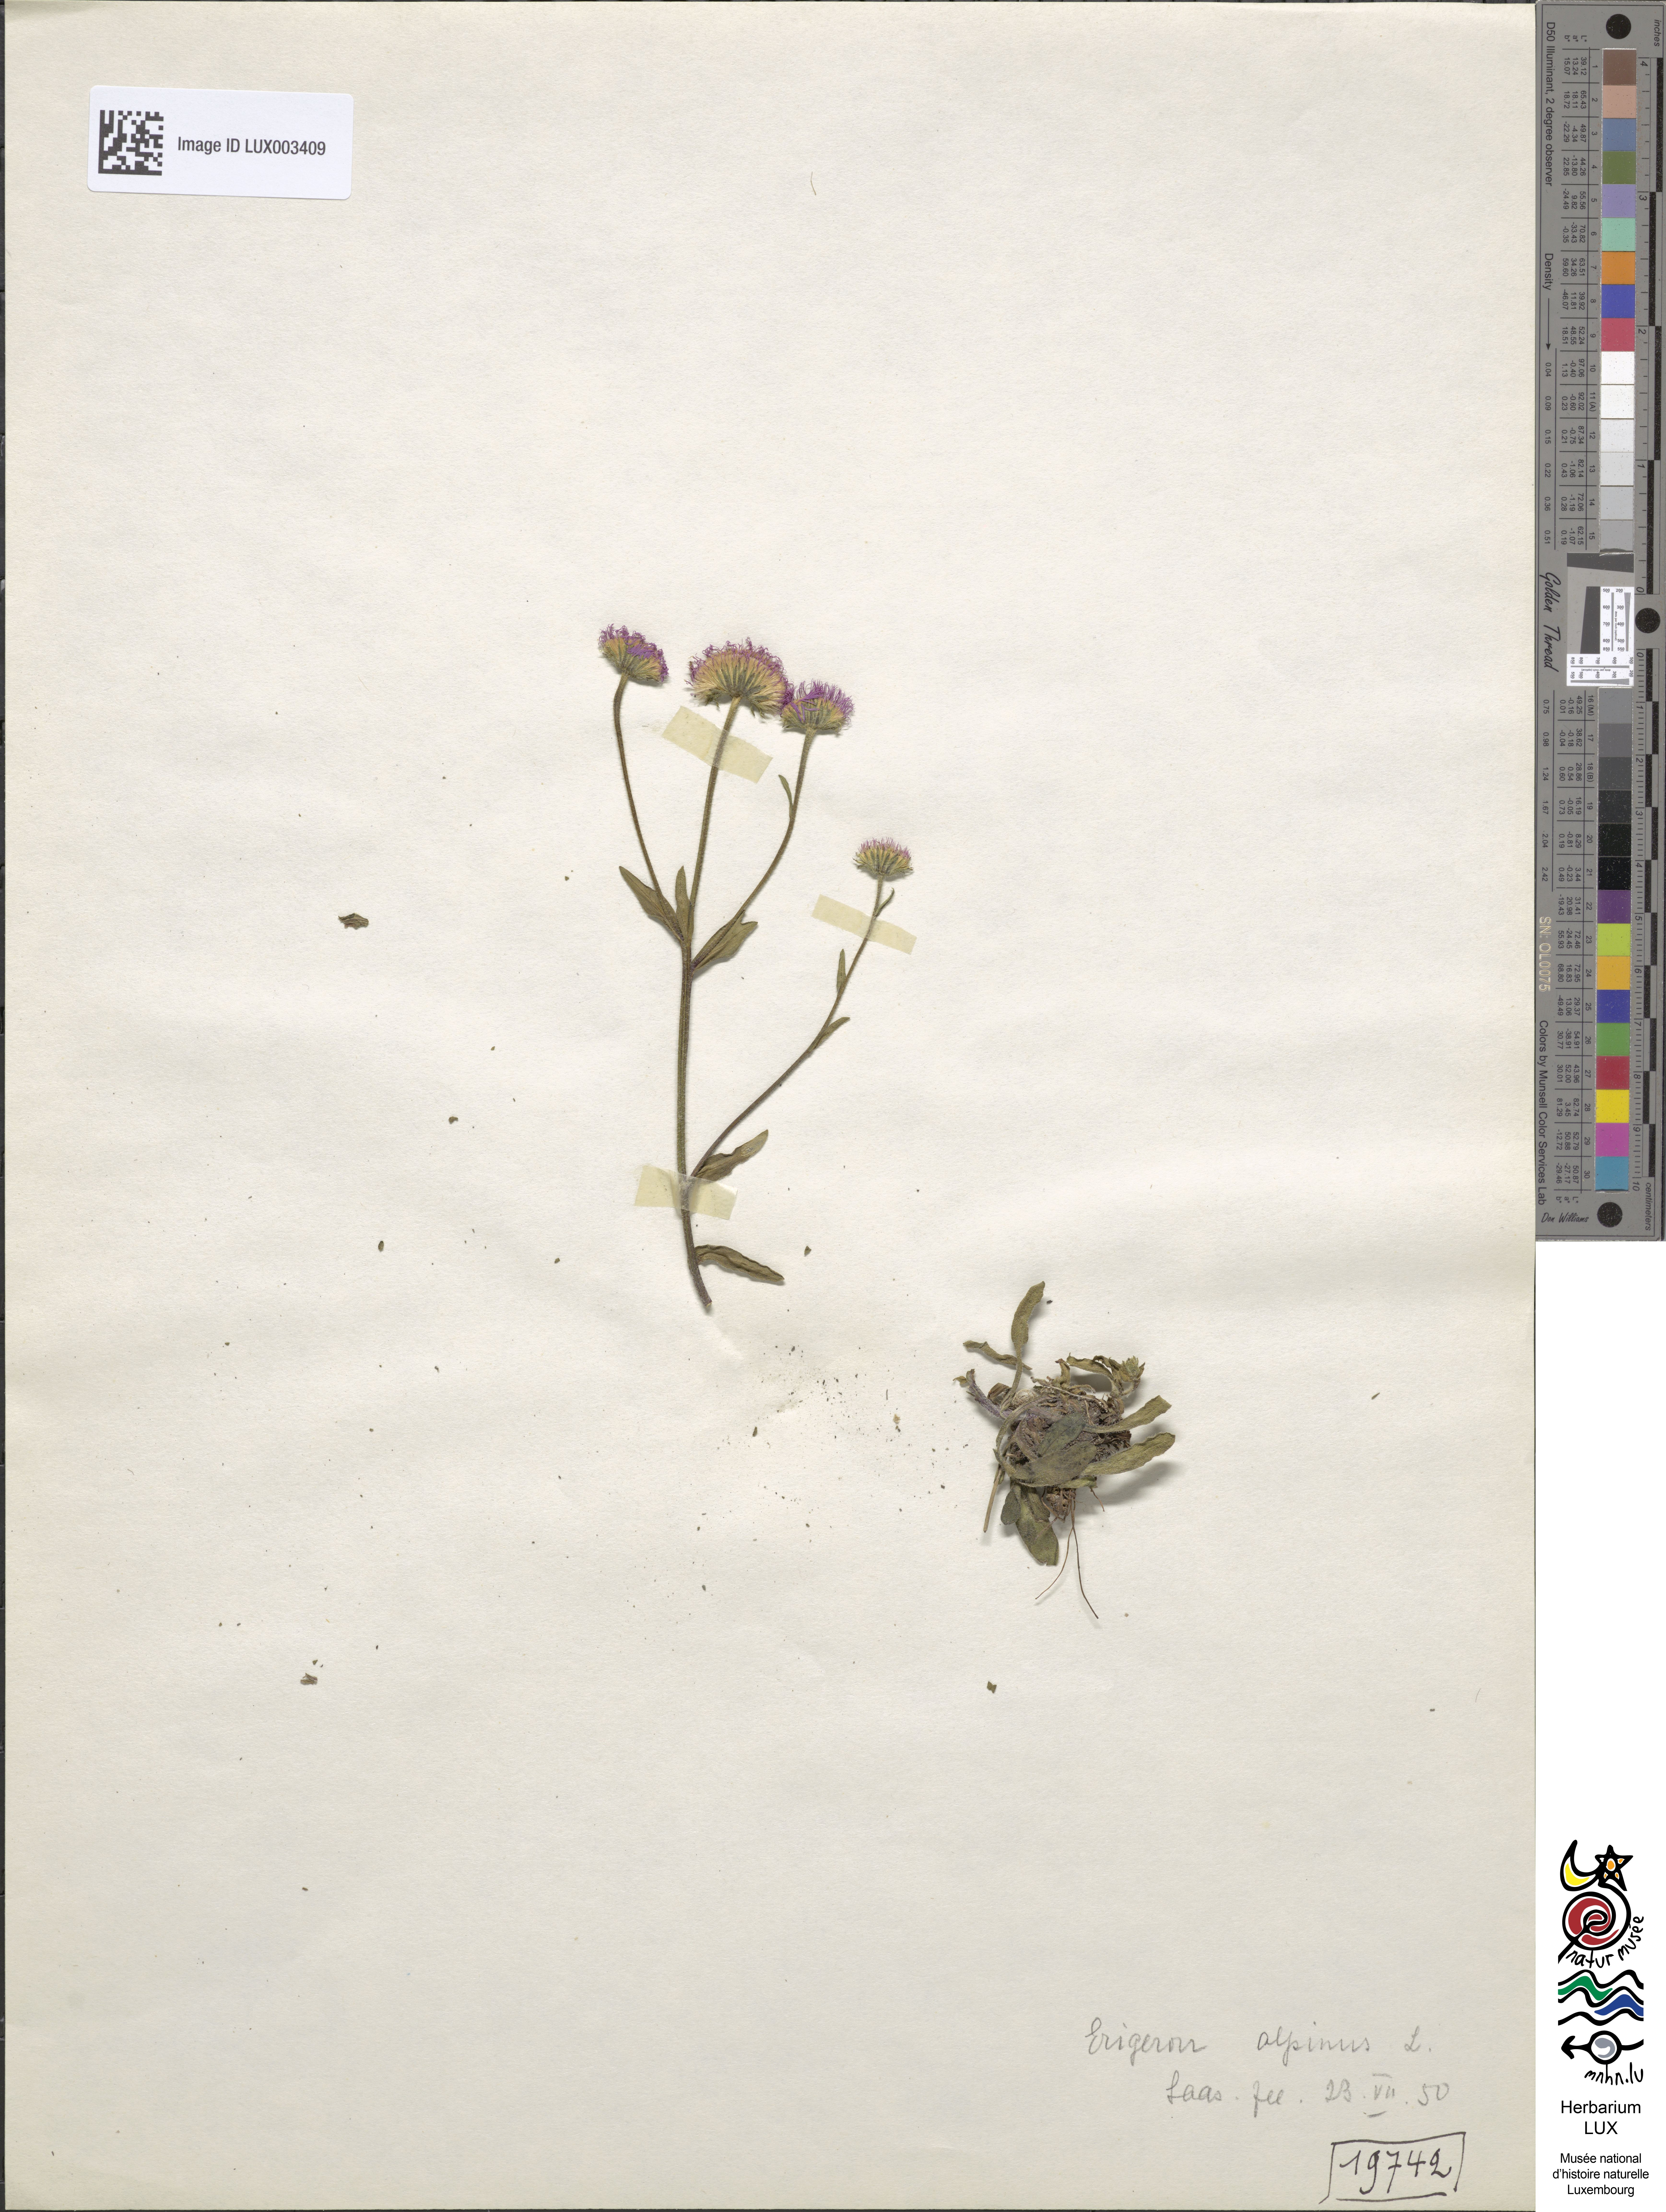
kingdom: Plantae
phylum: Tracheophyta
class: Magnoliopsida
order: Asterales
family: Asteraceae
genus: Erigeron
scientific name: Erigeron alpinus
